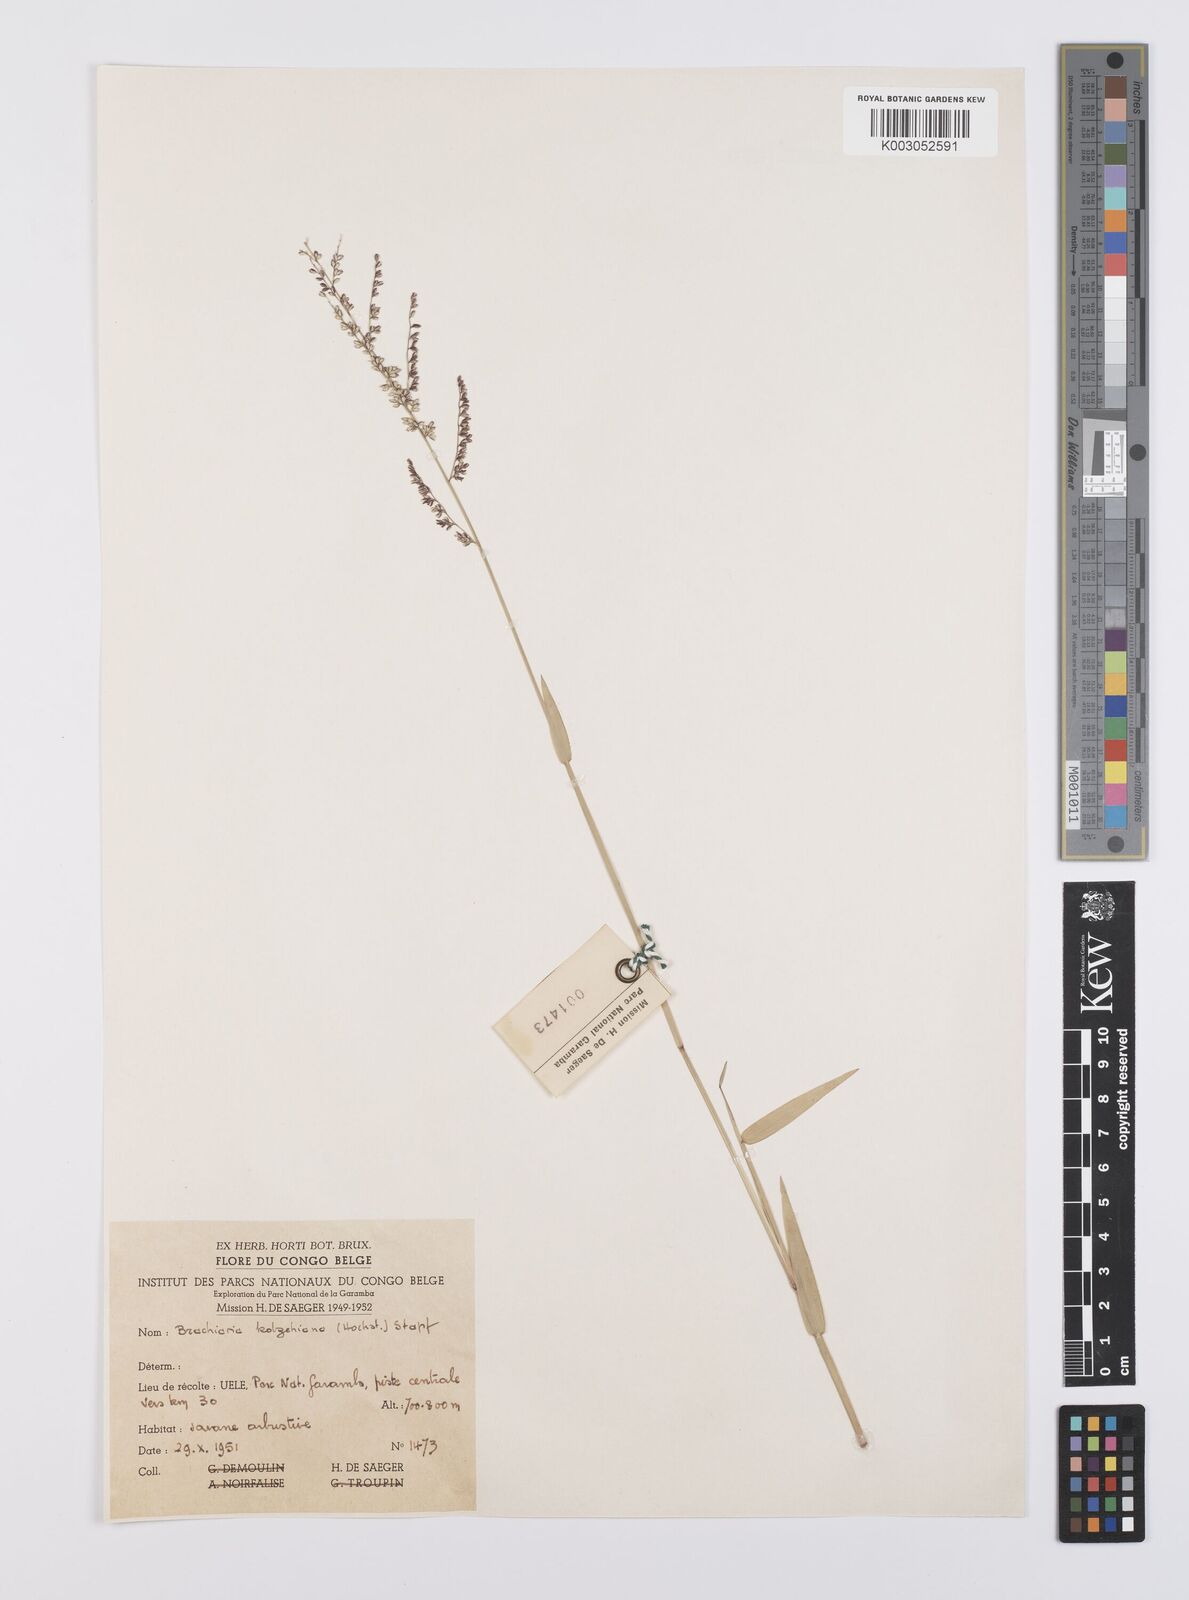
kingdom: Plantae
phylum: Tracheophyta
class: Liliopsida
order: Poales
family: Poaceae
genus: Urochloa
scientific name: Urochloa comata
